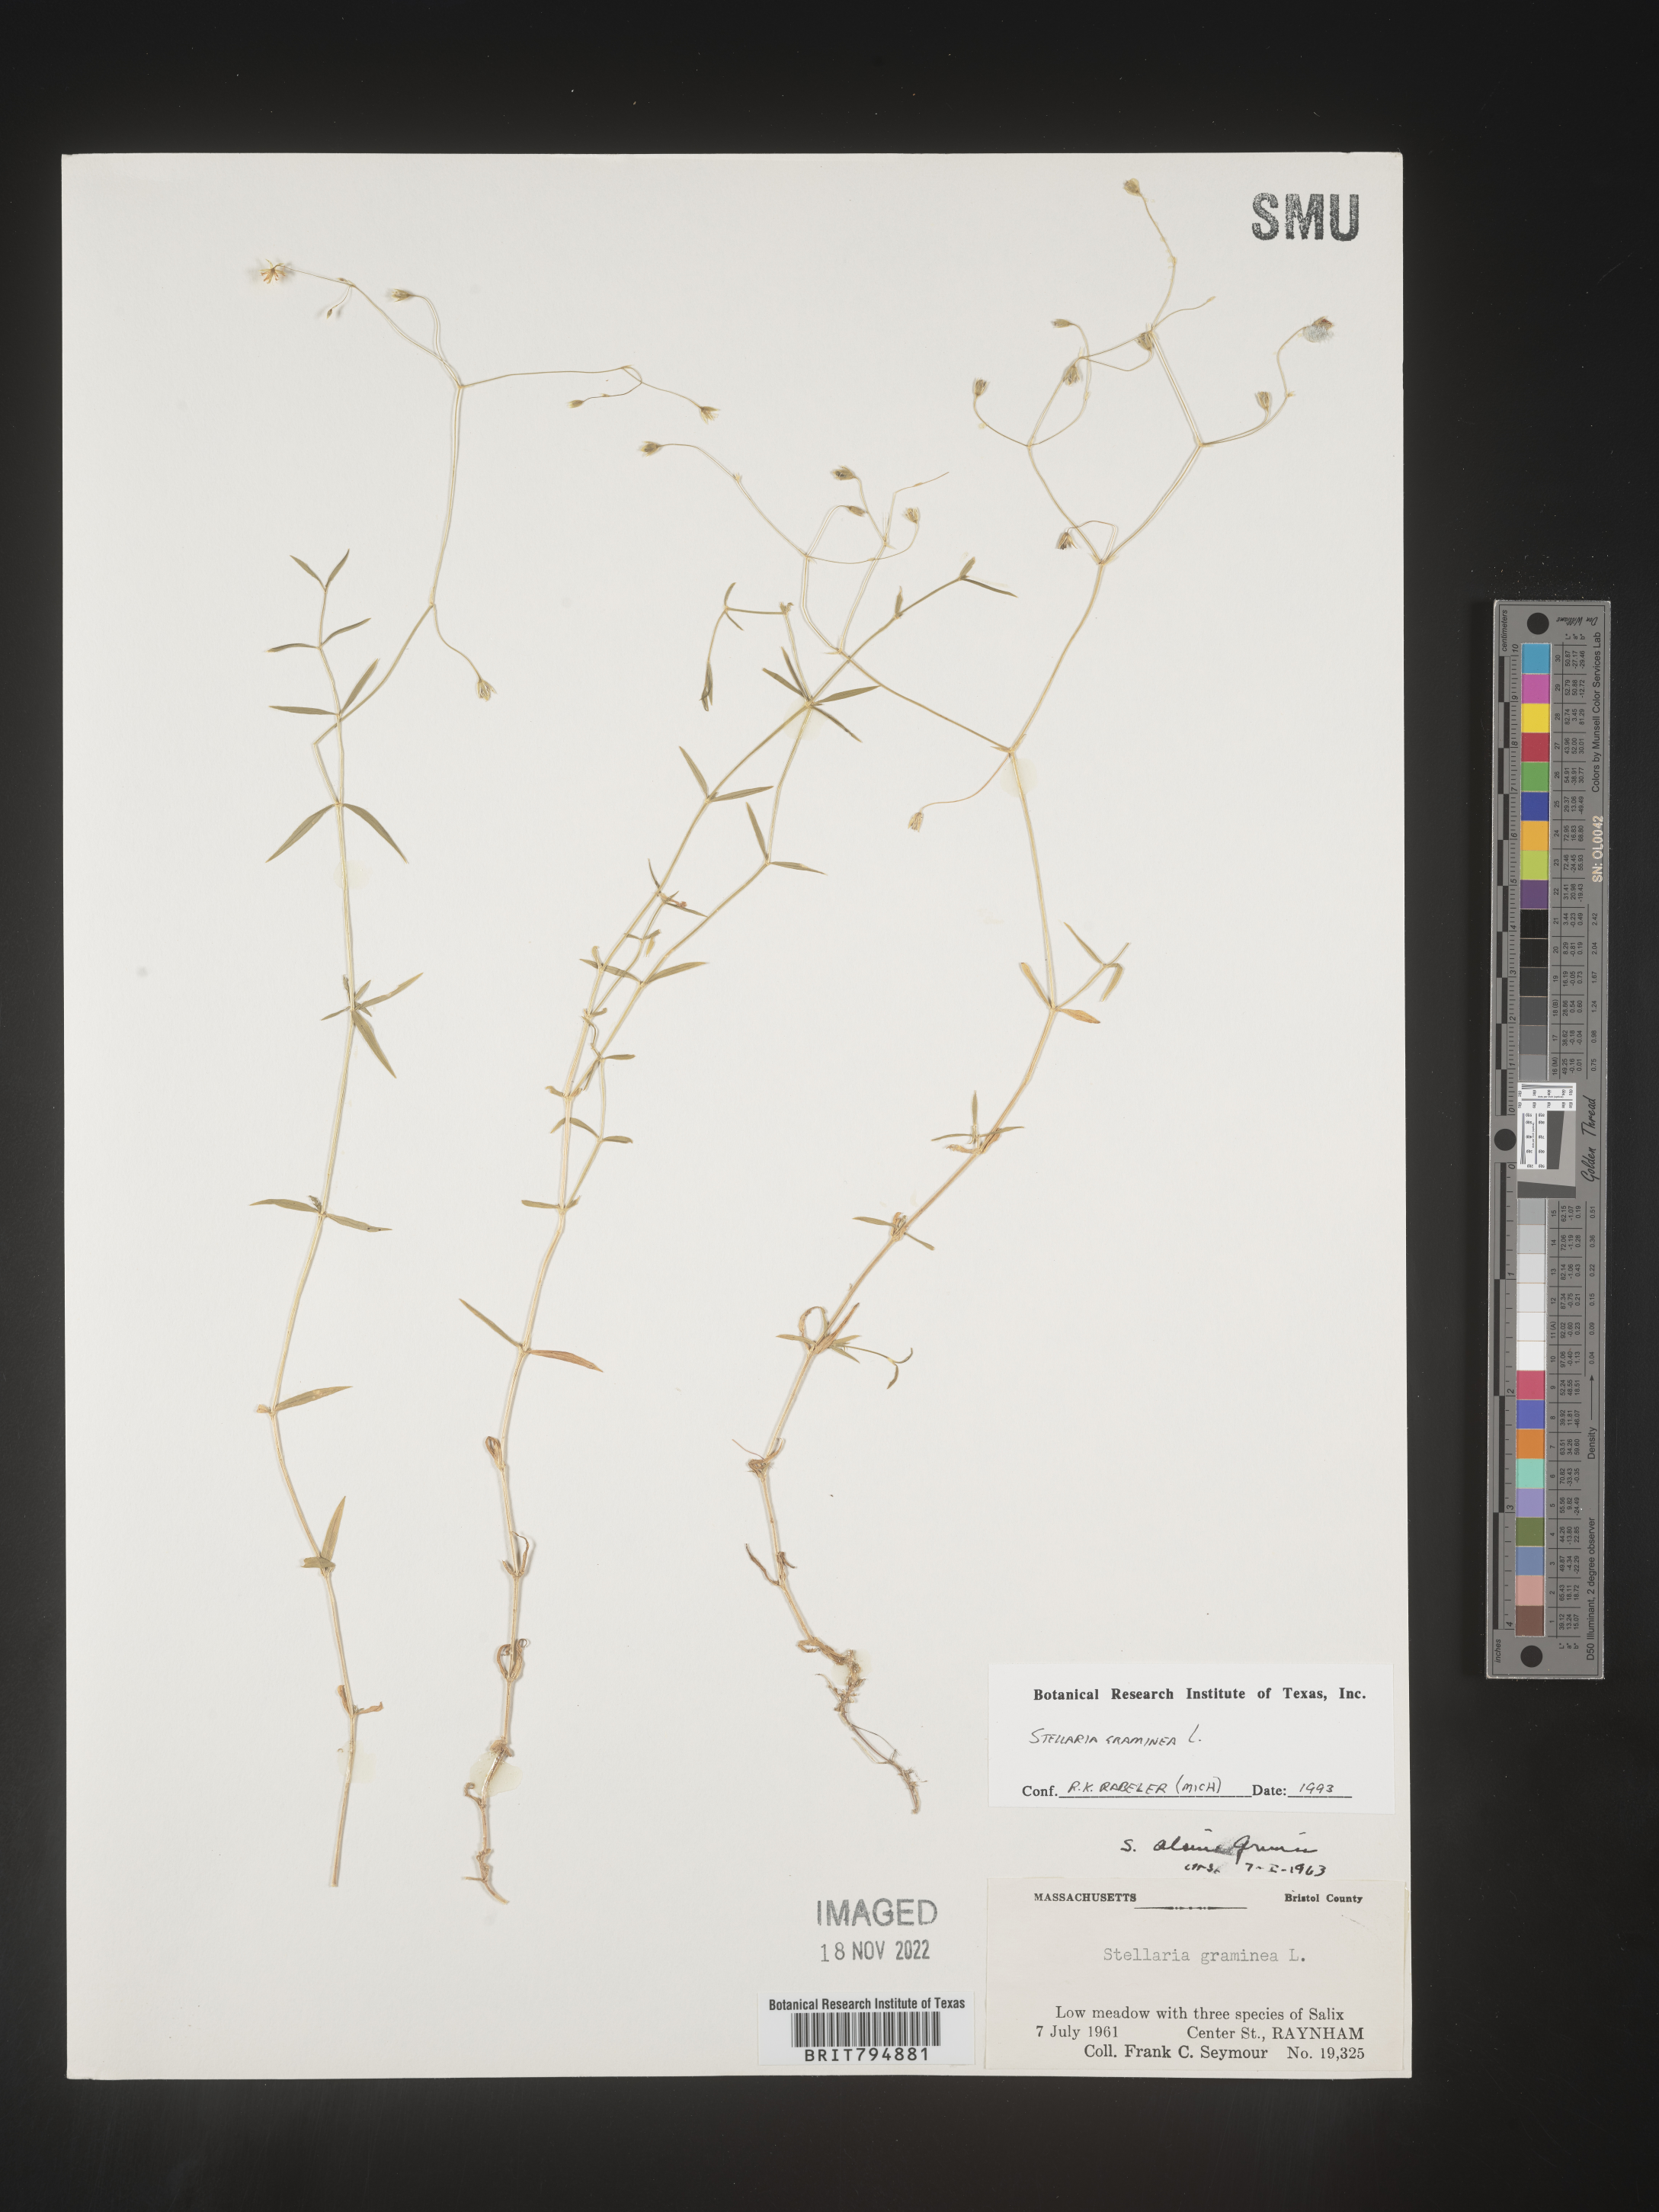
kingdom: Plantae
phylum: Tracheophyta
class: Magnoliopsida
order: Caryophyllales
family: Caryophyllaceae
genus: Stellaria
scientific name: Stellaria graminea
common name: Grass-like starwort
